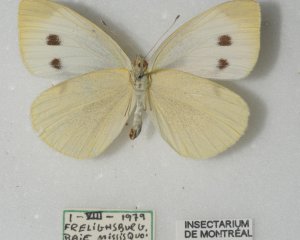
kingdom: Animalia
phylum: Arthropoda
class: Insecta
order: Lepidoptera
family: Pieridae
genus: Pieris
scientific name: Pieris rapae
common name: Cabbage White
